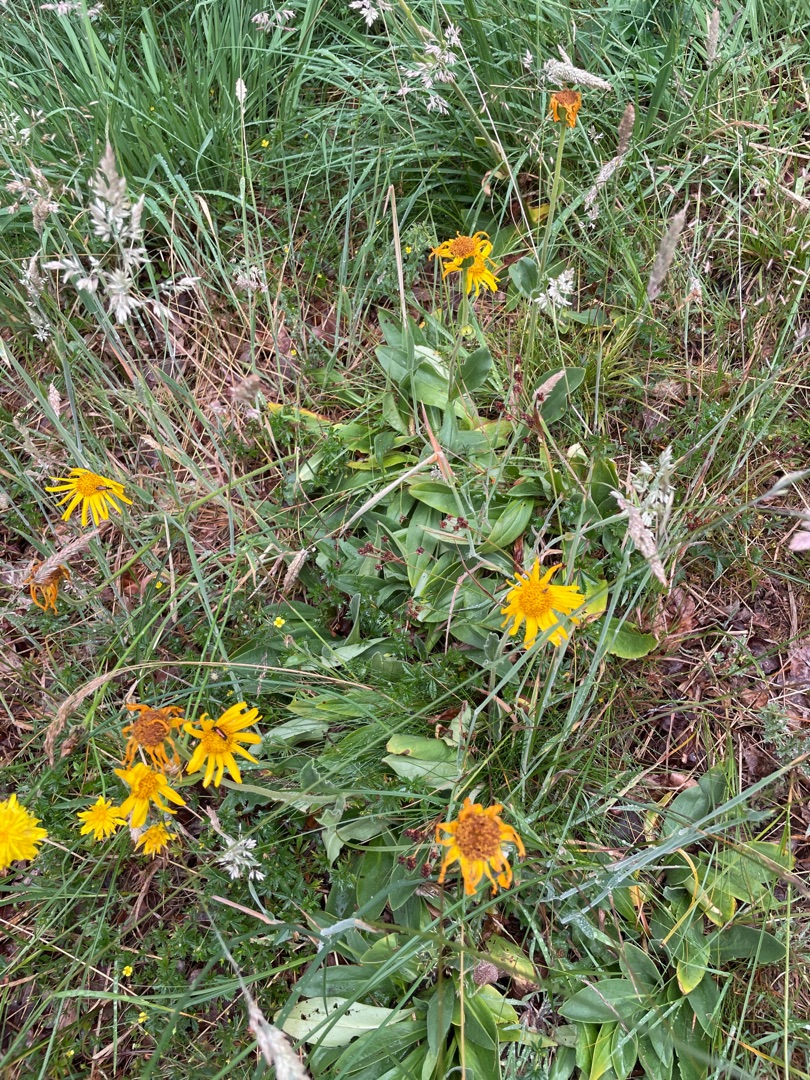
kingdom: Plantae
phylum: Tracheophyta
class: Magnoliopsida
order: Asterales
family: Asteraceae
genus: Arnica
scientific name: Arnica montana
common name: Guldblomme
